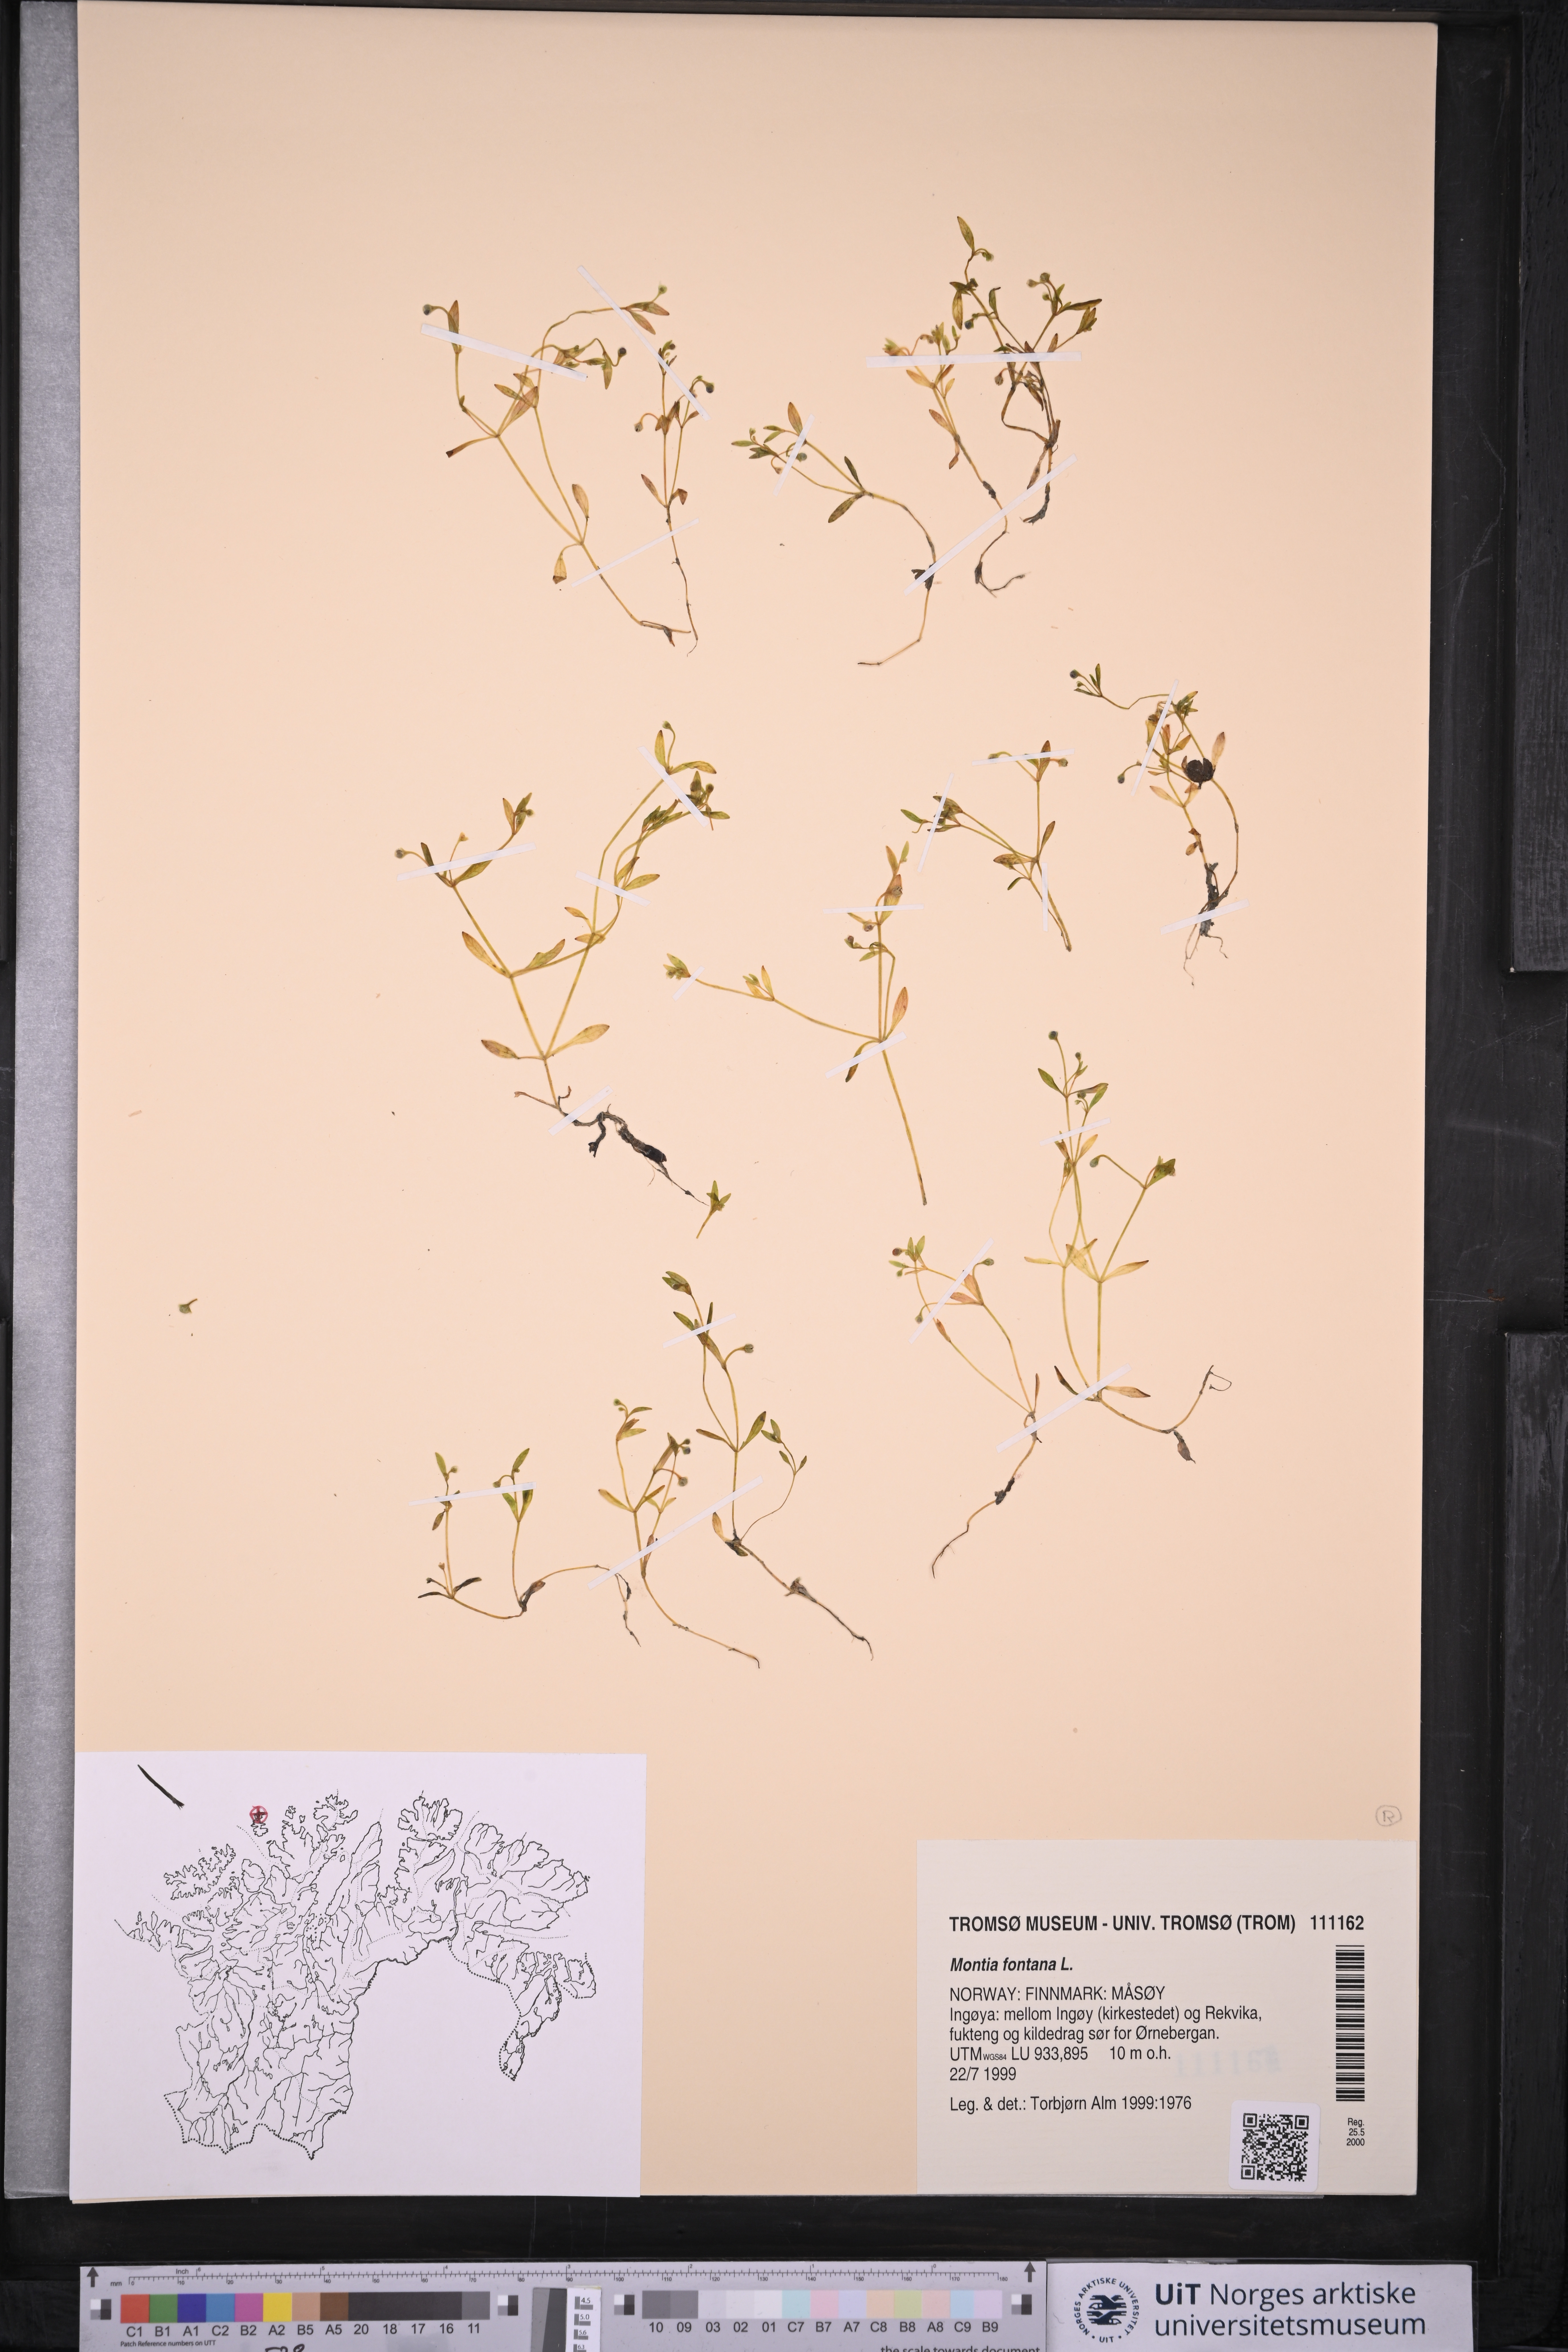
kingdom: Plantae
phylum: Tracheophyta
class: Magnoliopsida
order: Caryophyllales
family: Montiaceae
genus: Montia
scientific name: Montia fontana
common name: Blinks
